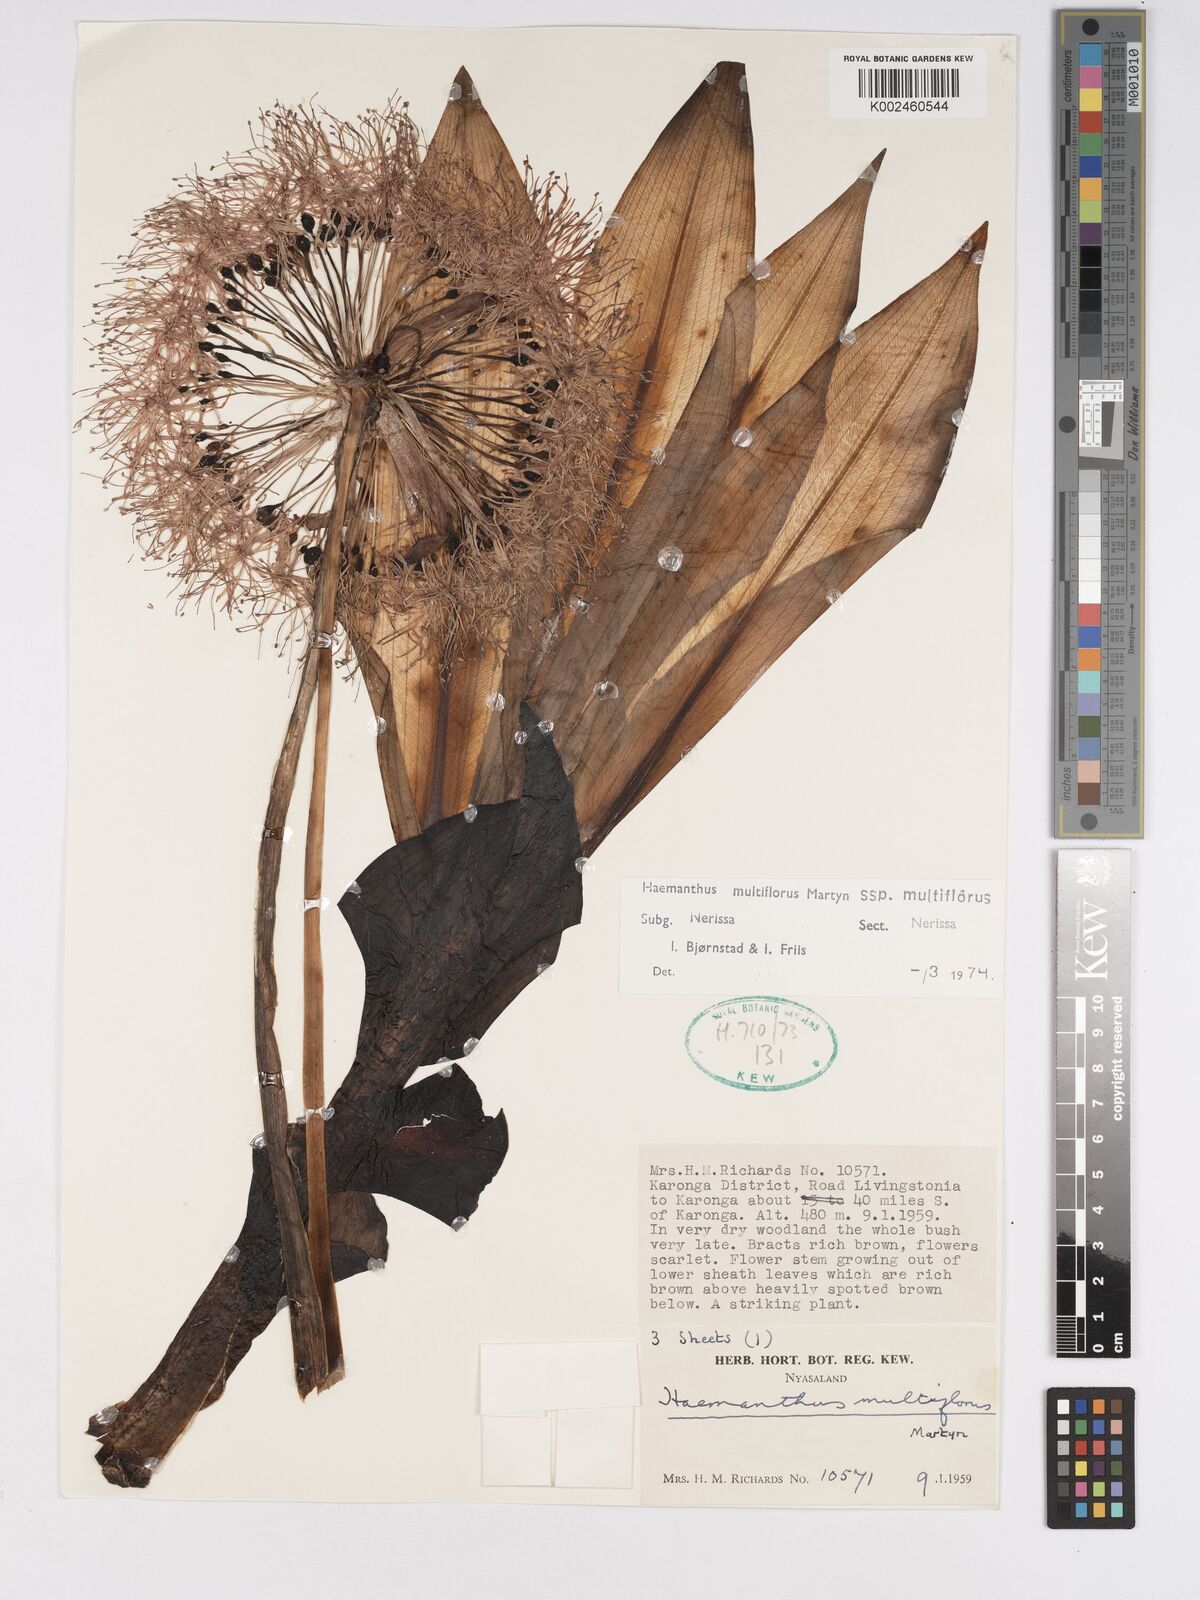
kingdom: Plantae
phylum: Tracheophyta
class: Liliopsida
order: Asparagales
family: Amaryllidaceae
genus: Scadoxus
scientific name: Scadoxus multiflorus
